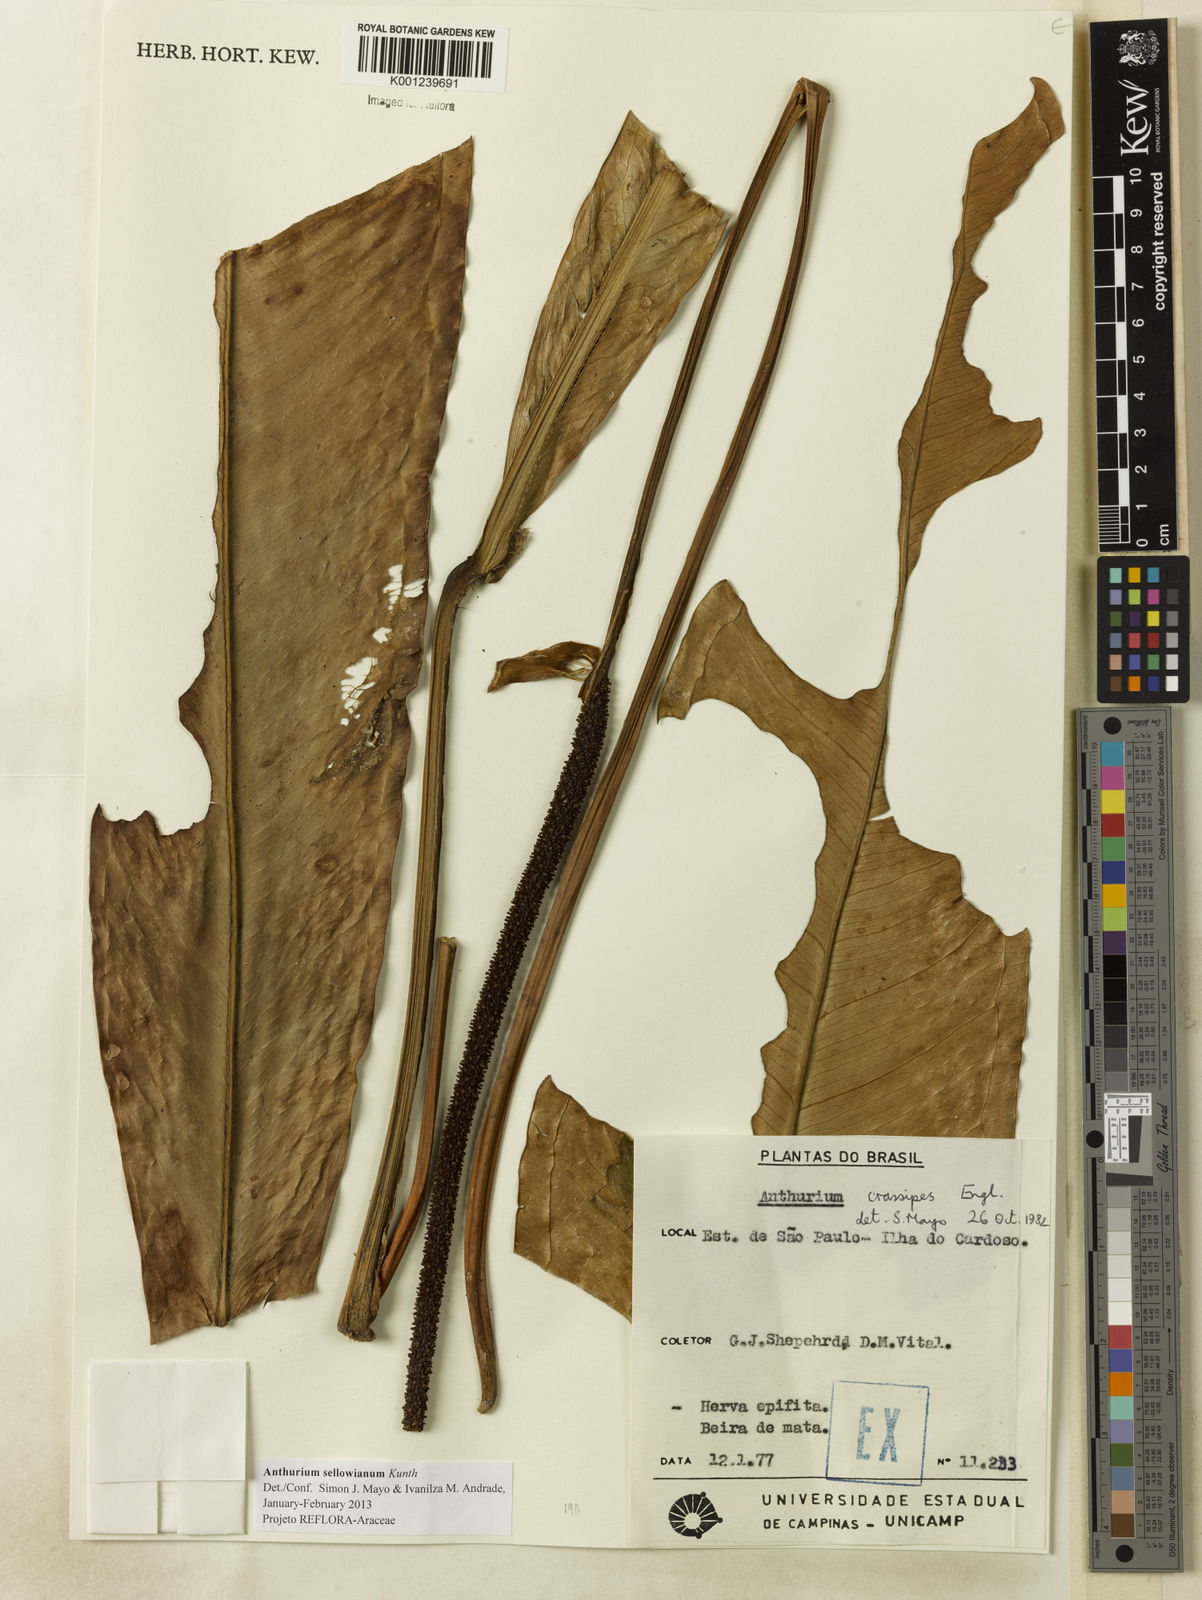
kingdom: Plantae
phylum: Tracheophyta
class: Liliopsida
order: Alismatales
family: Araceae
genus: Anthurium
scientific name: Anthurium sellowianum
